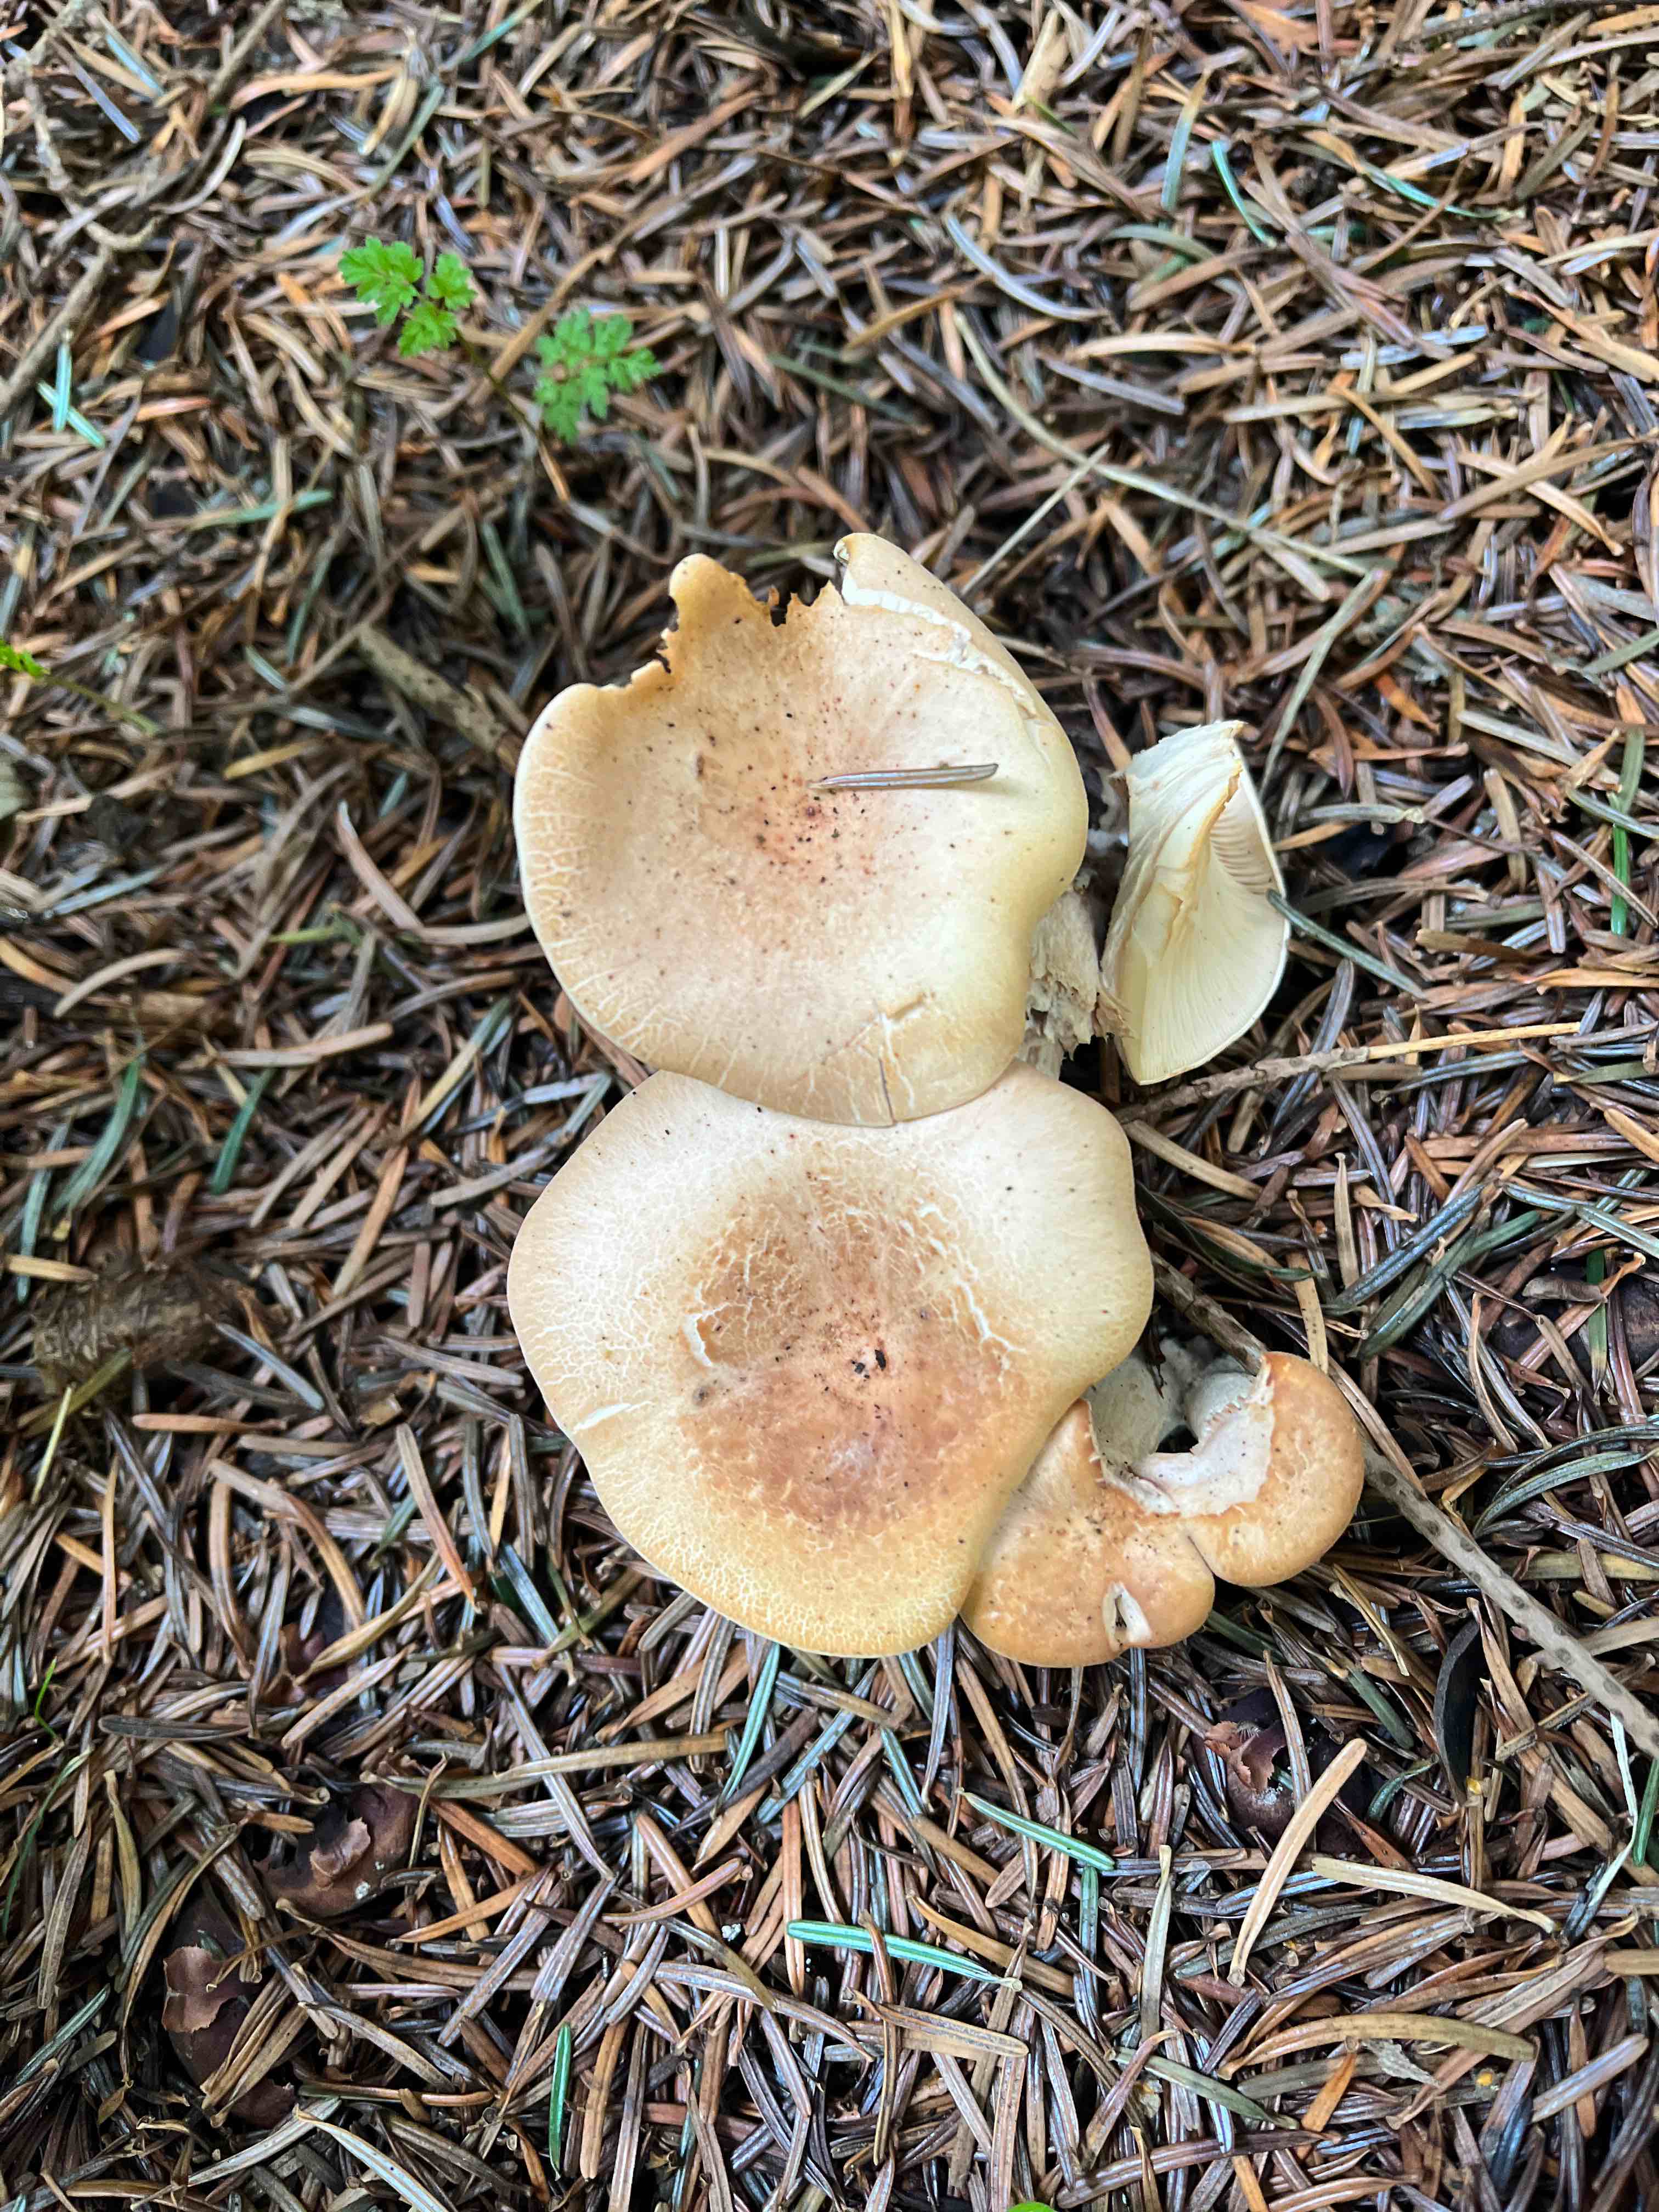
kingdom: Fungi
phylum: Basidiomycota
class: Agaricomycetes
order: Agaricales
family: Tricholomataceae
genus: Paralepista
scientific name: Paralepista gilva
